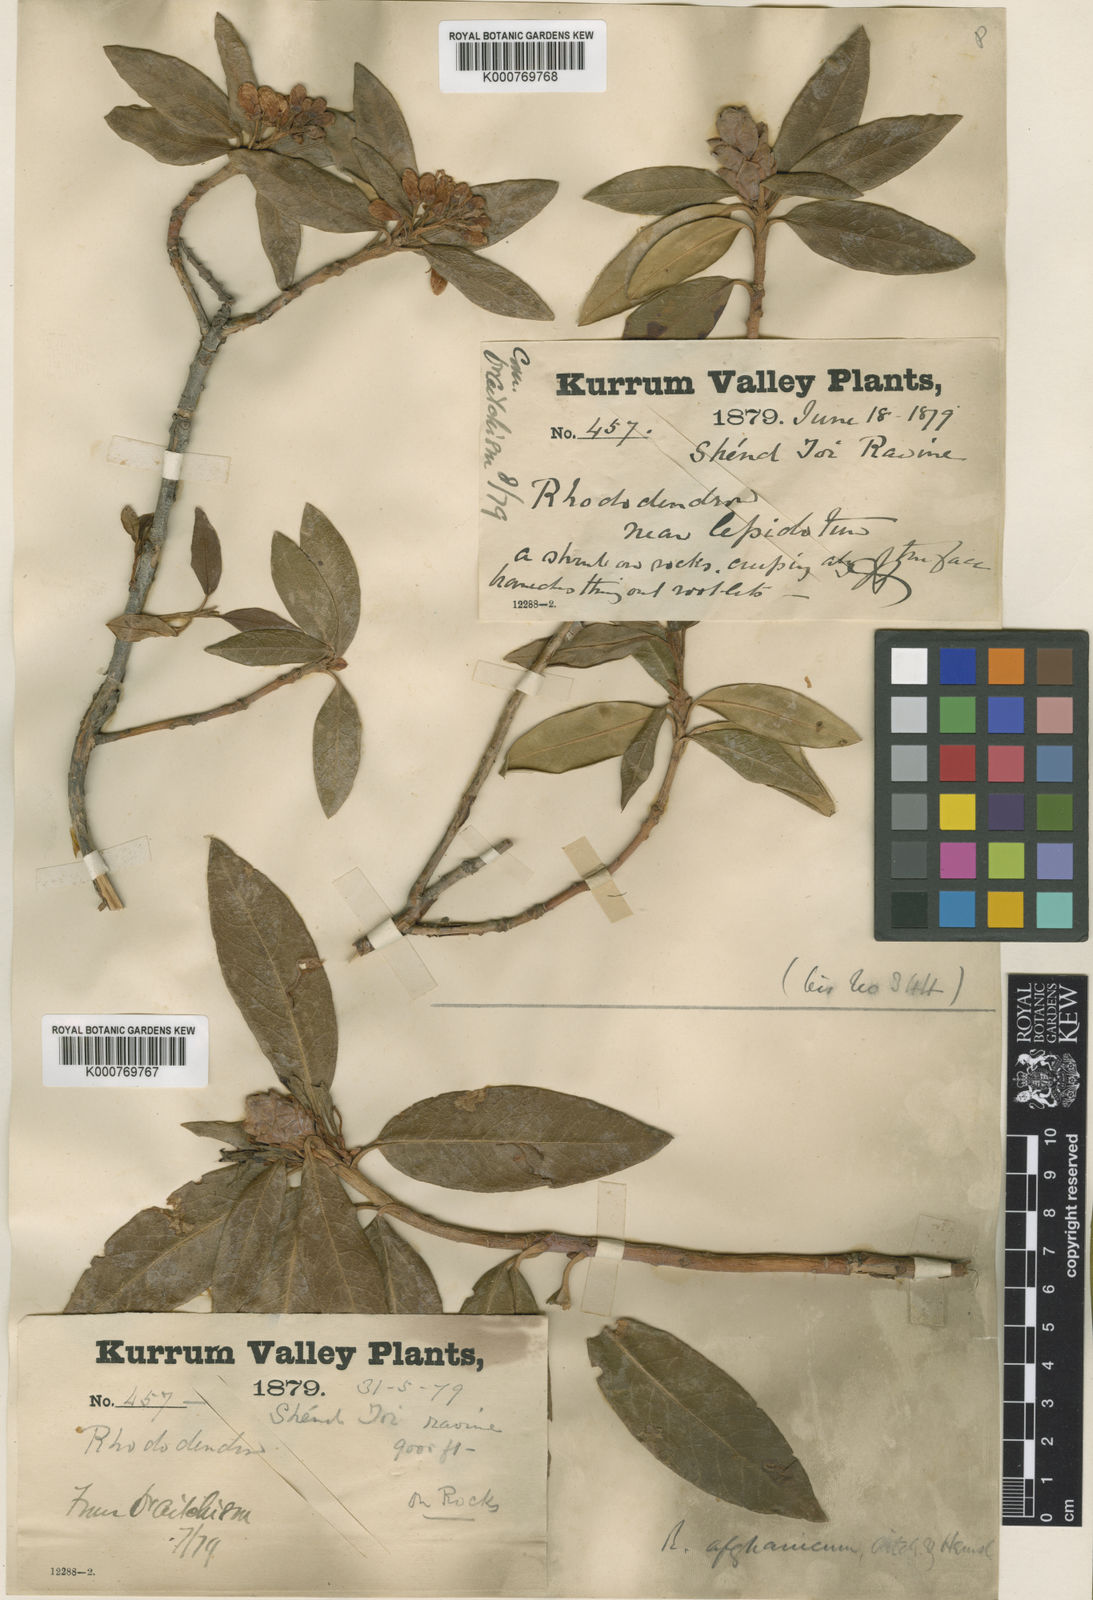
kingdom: Plantae
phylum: Tracheophyta
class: Magnoliopsida
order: Ericales
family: Ericaceae
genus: Rhododendron
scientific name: Rhododendron afghanicum
